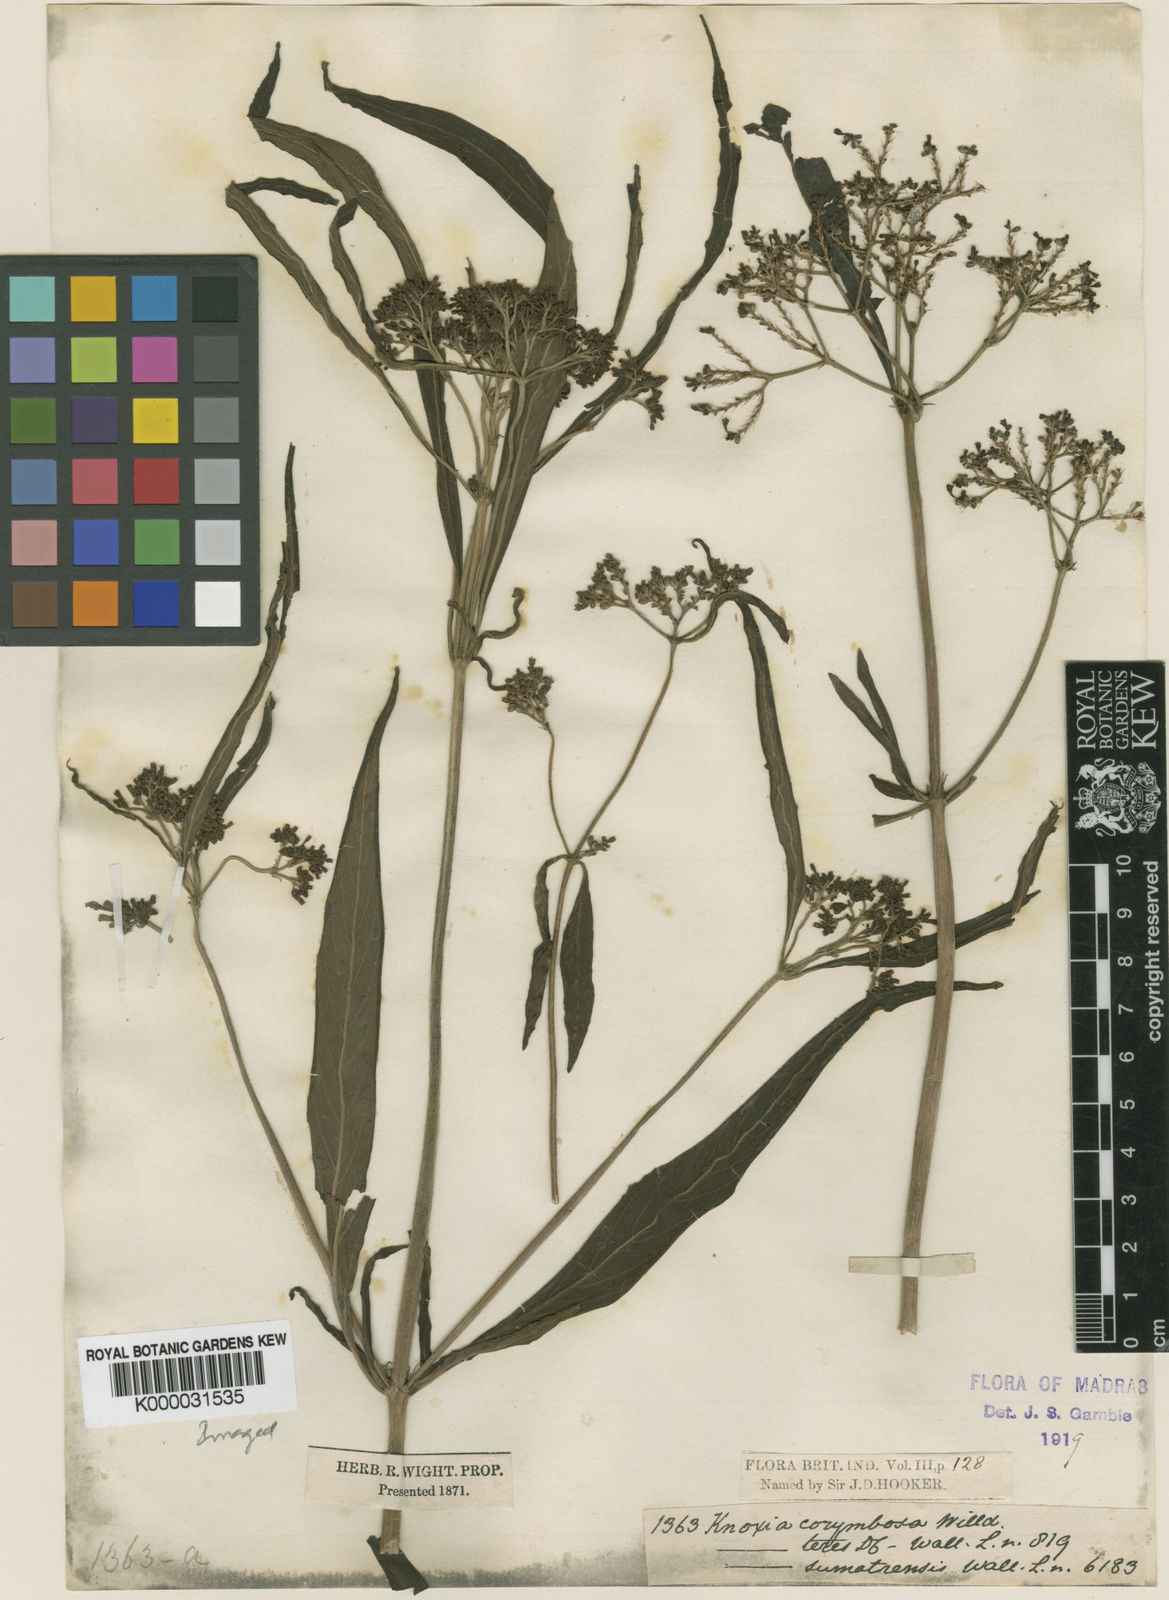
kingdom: Plantae
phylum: Tracheophyta
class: Magnoliopsida
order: Gentianales
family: Rubiaceae
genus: Knoxia
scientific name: Knoxia sumatrensis
